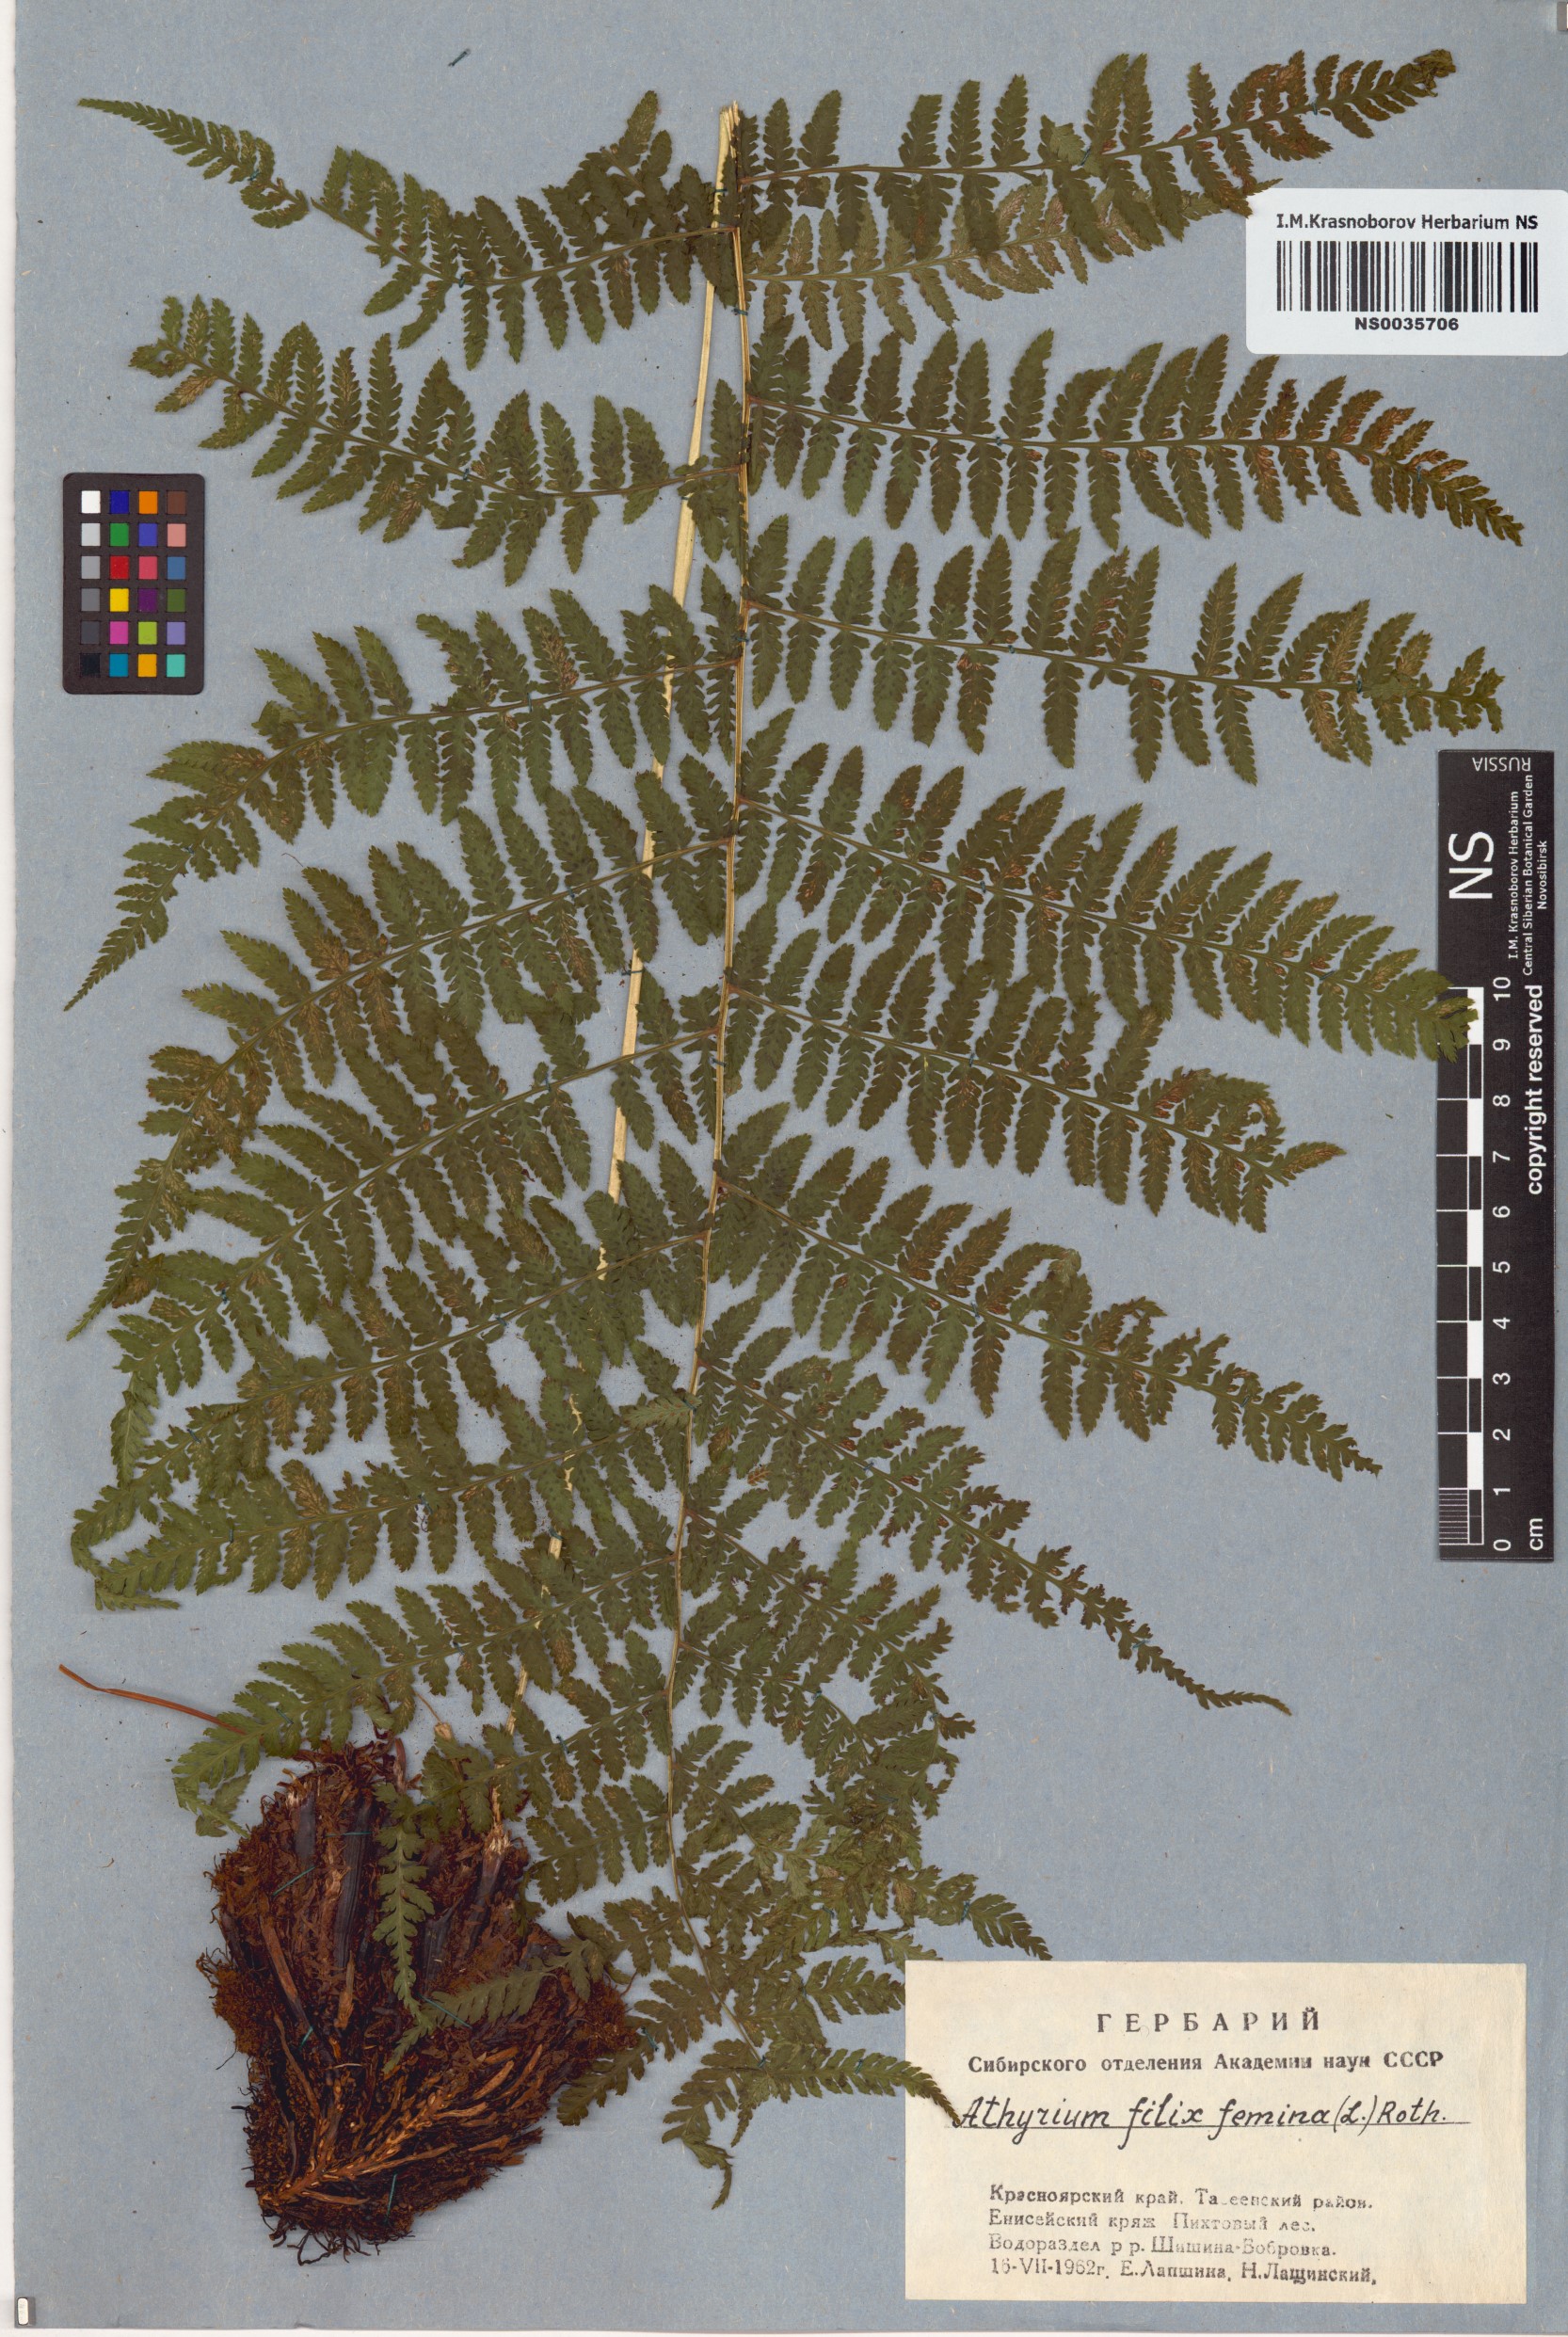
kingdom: Plantae
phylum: Tracheophyta
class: Polypodiopsida
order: Polypodiales
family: Athyriaceae
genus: Athyrium
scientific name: Athyrium filix-femina
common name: Lady fern
